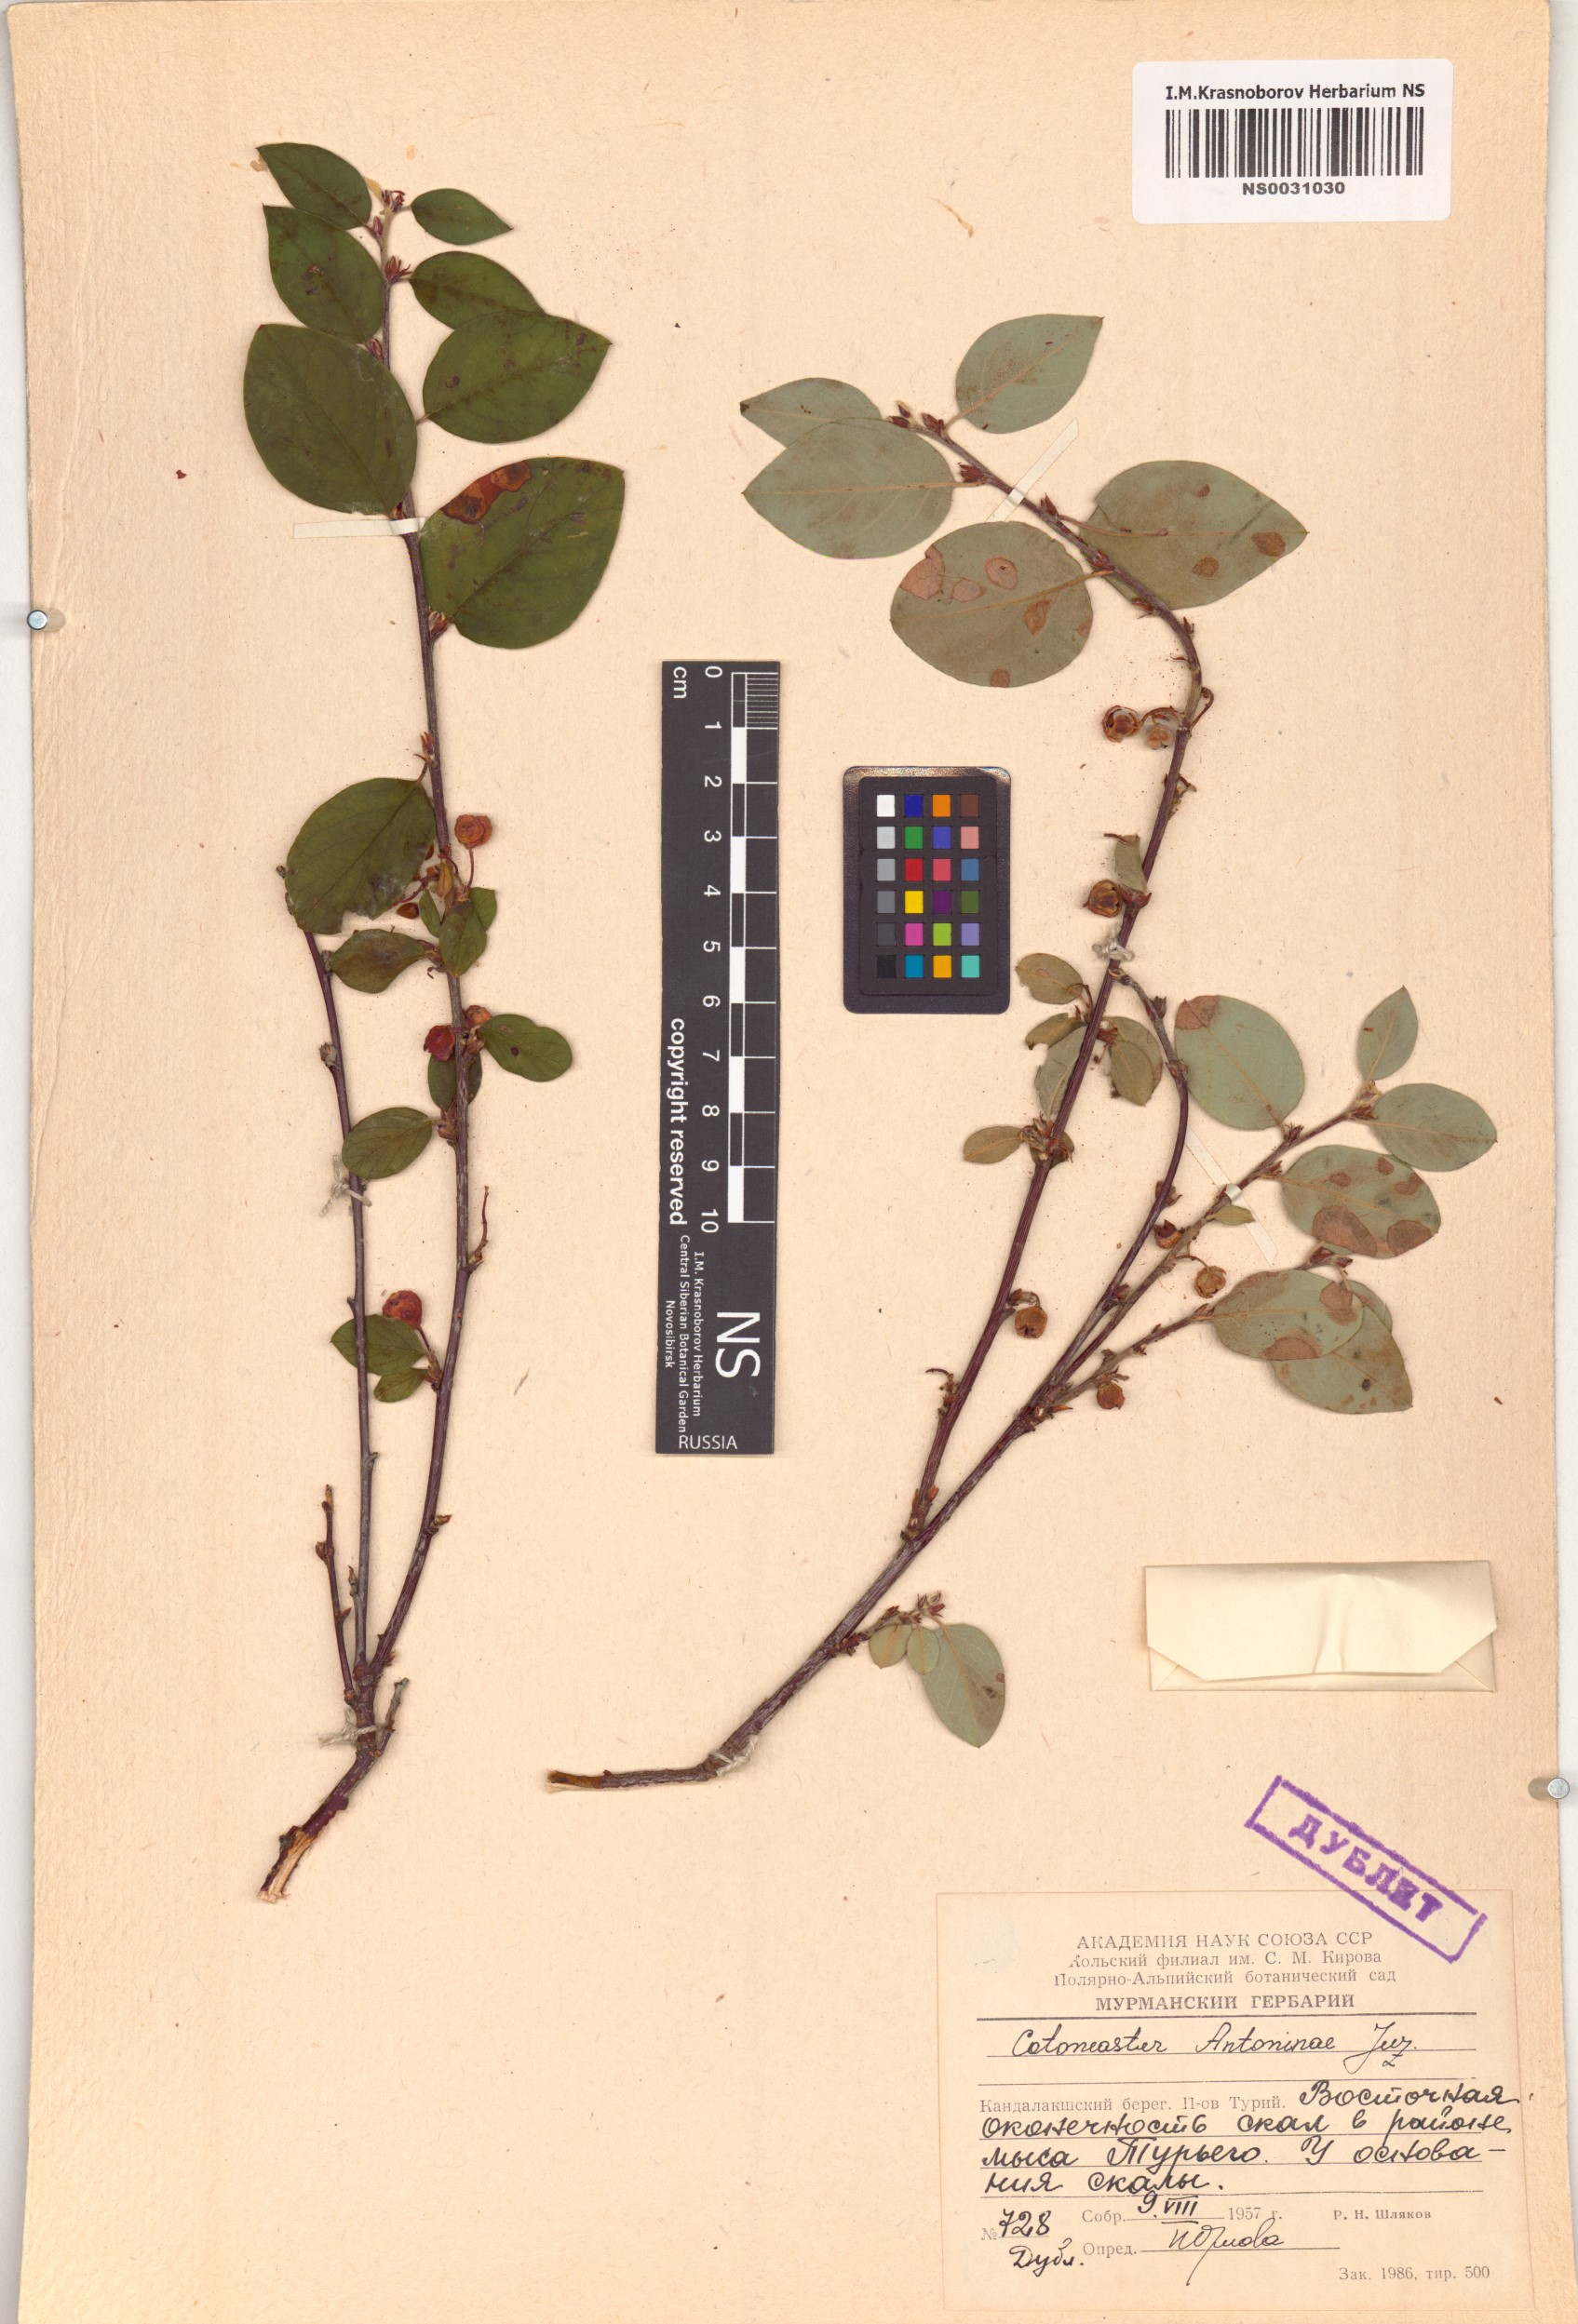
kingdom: Plantae
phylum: Tracheophyta
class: Magnoliopsida
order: Rosales
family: Rosaceae
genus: Cotoneaster
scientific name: Cotoneaster laxiflorus
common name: Black-fruit cotoneaster
